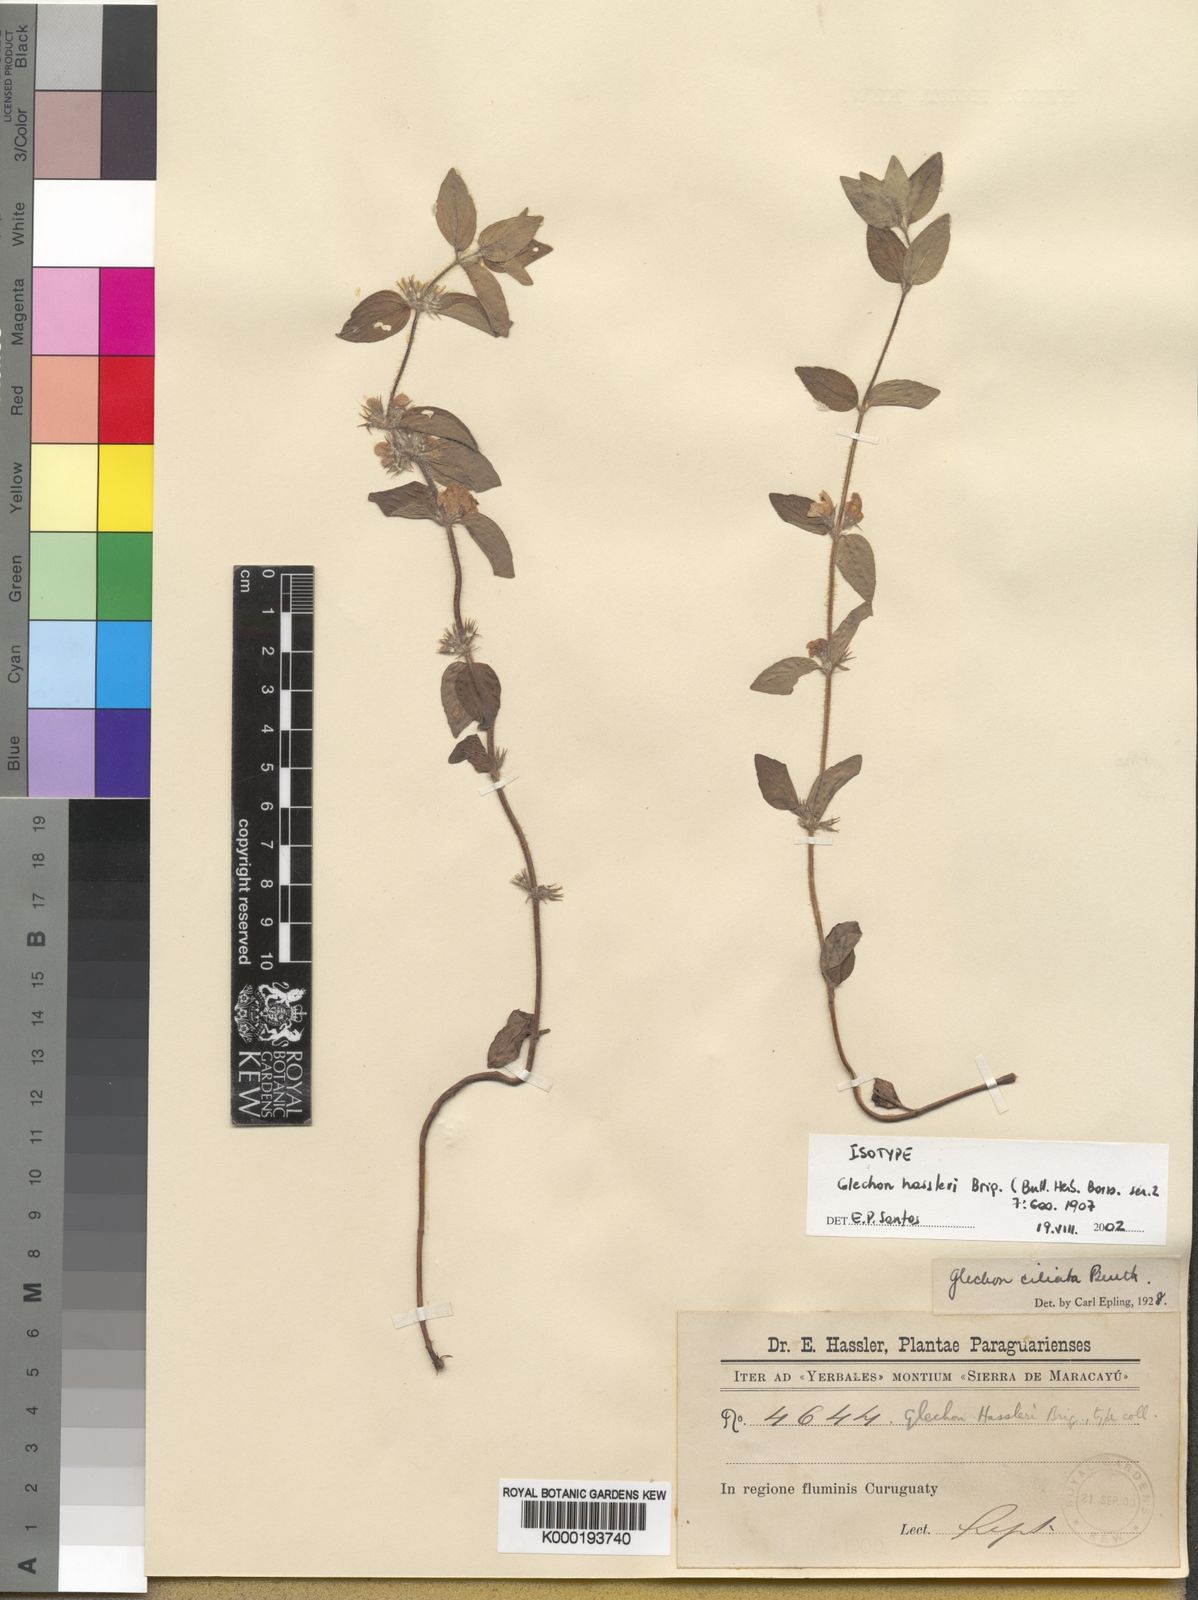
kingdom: Plantae
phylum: Tracheophyta
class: Magnoliopsida
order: Lamiales
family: Lamiaceae
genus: Glechon
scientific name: Glechon ciliata
